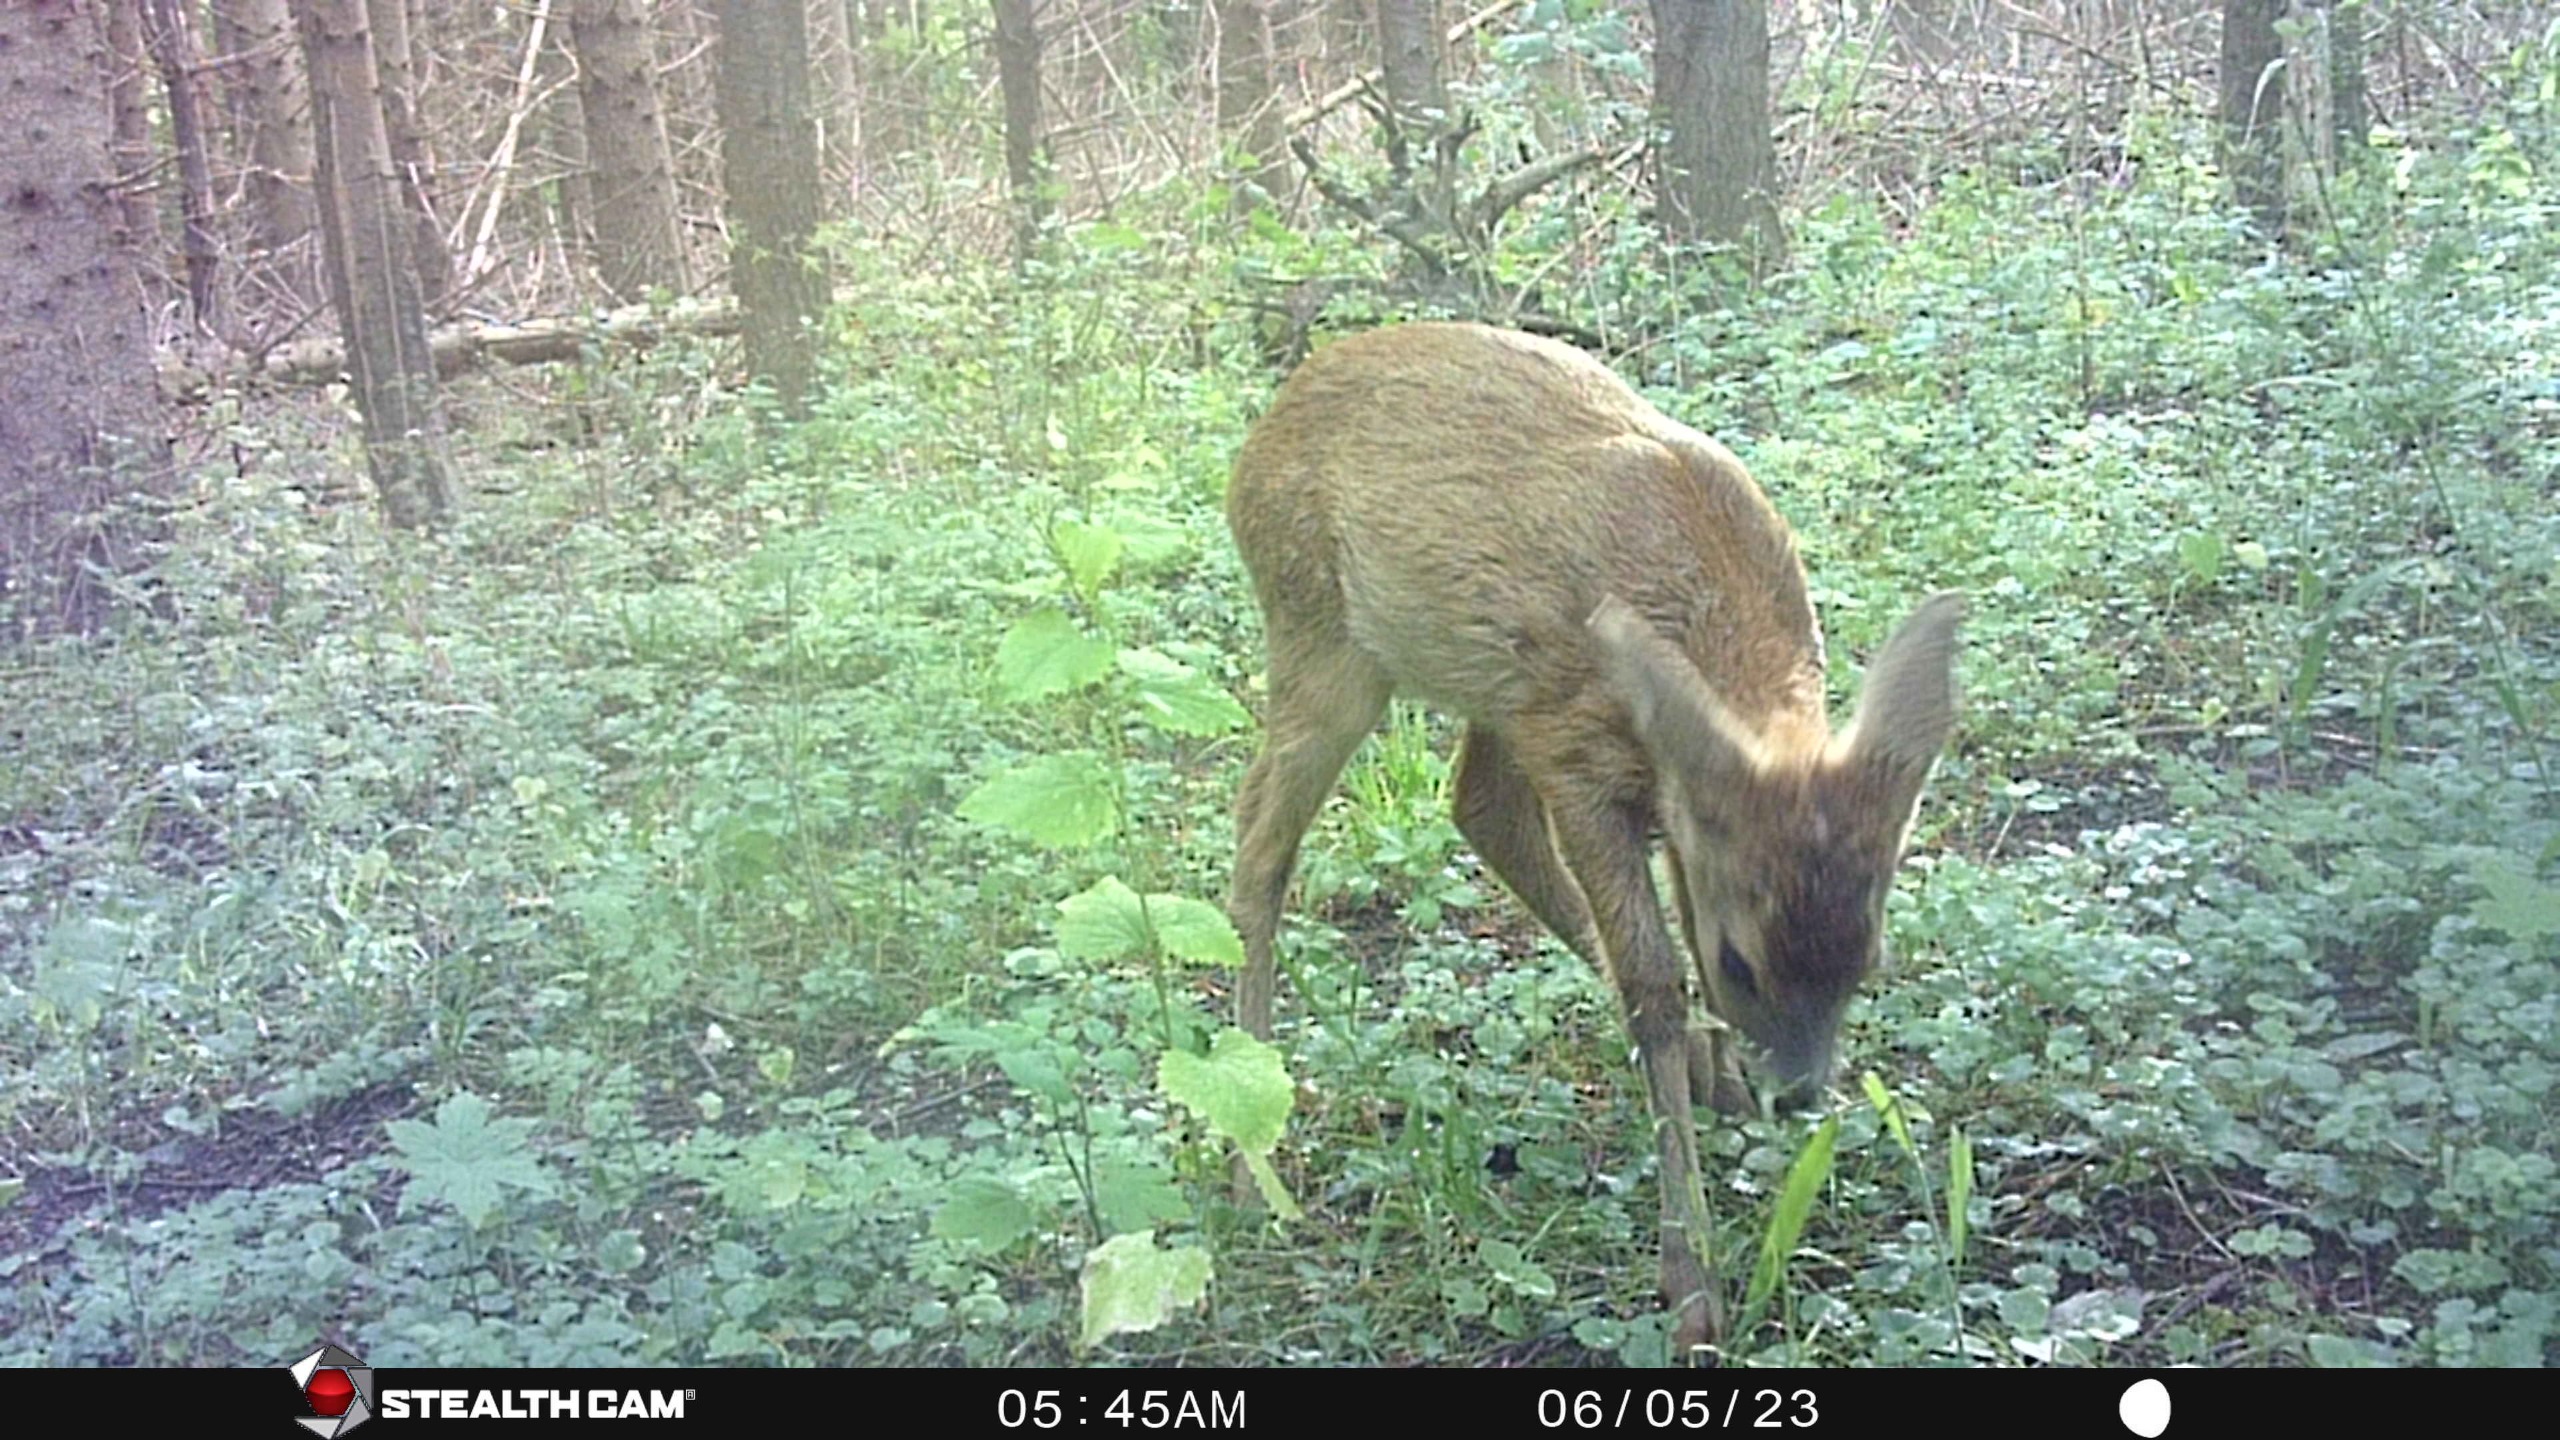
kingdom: Animalia
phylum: Chordata
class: Mammalia
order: Artiodactyla
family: Cervidae
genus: Capreolus
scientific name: Capreolus capreolus
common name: Rådyr
